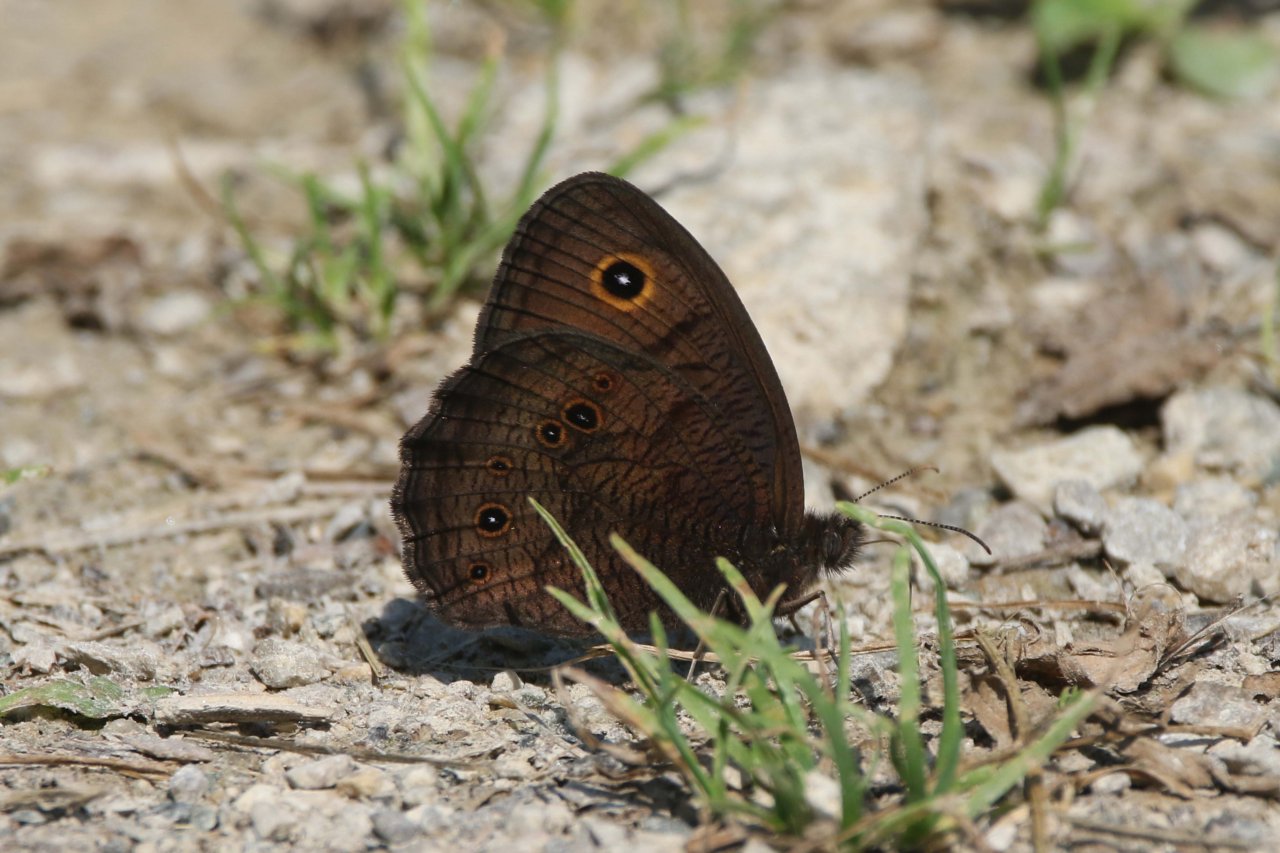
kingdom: Animalia
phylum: Arthropoda
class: Insecta
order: Lepidoptera
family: Nymphalidae
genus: Cercyonis
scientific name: Cercyonis pegala
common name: Common Wood-Nymph
